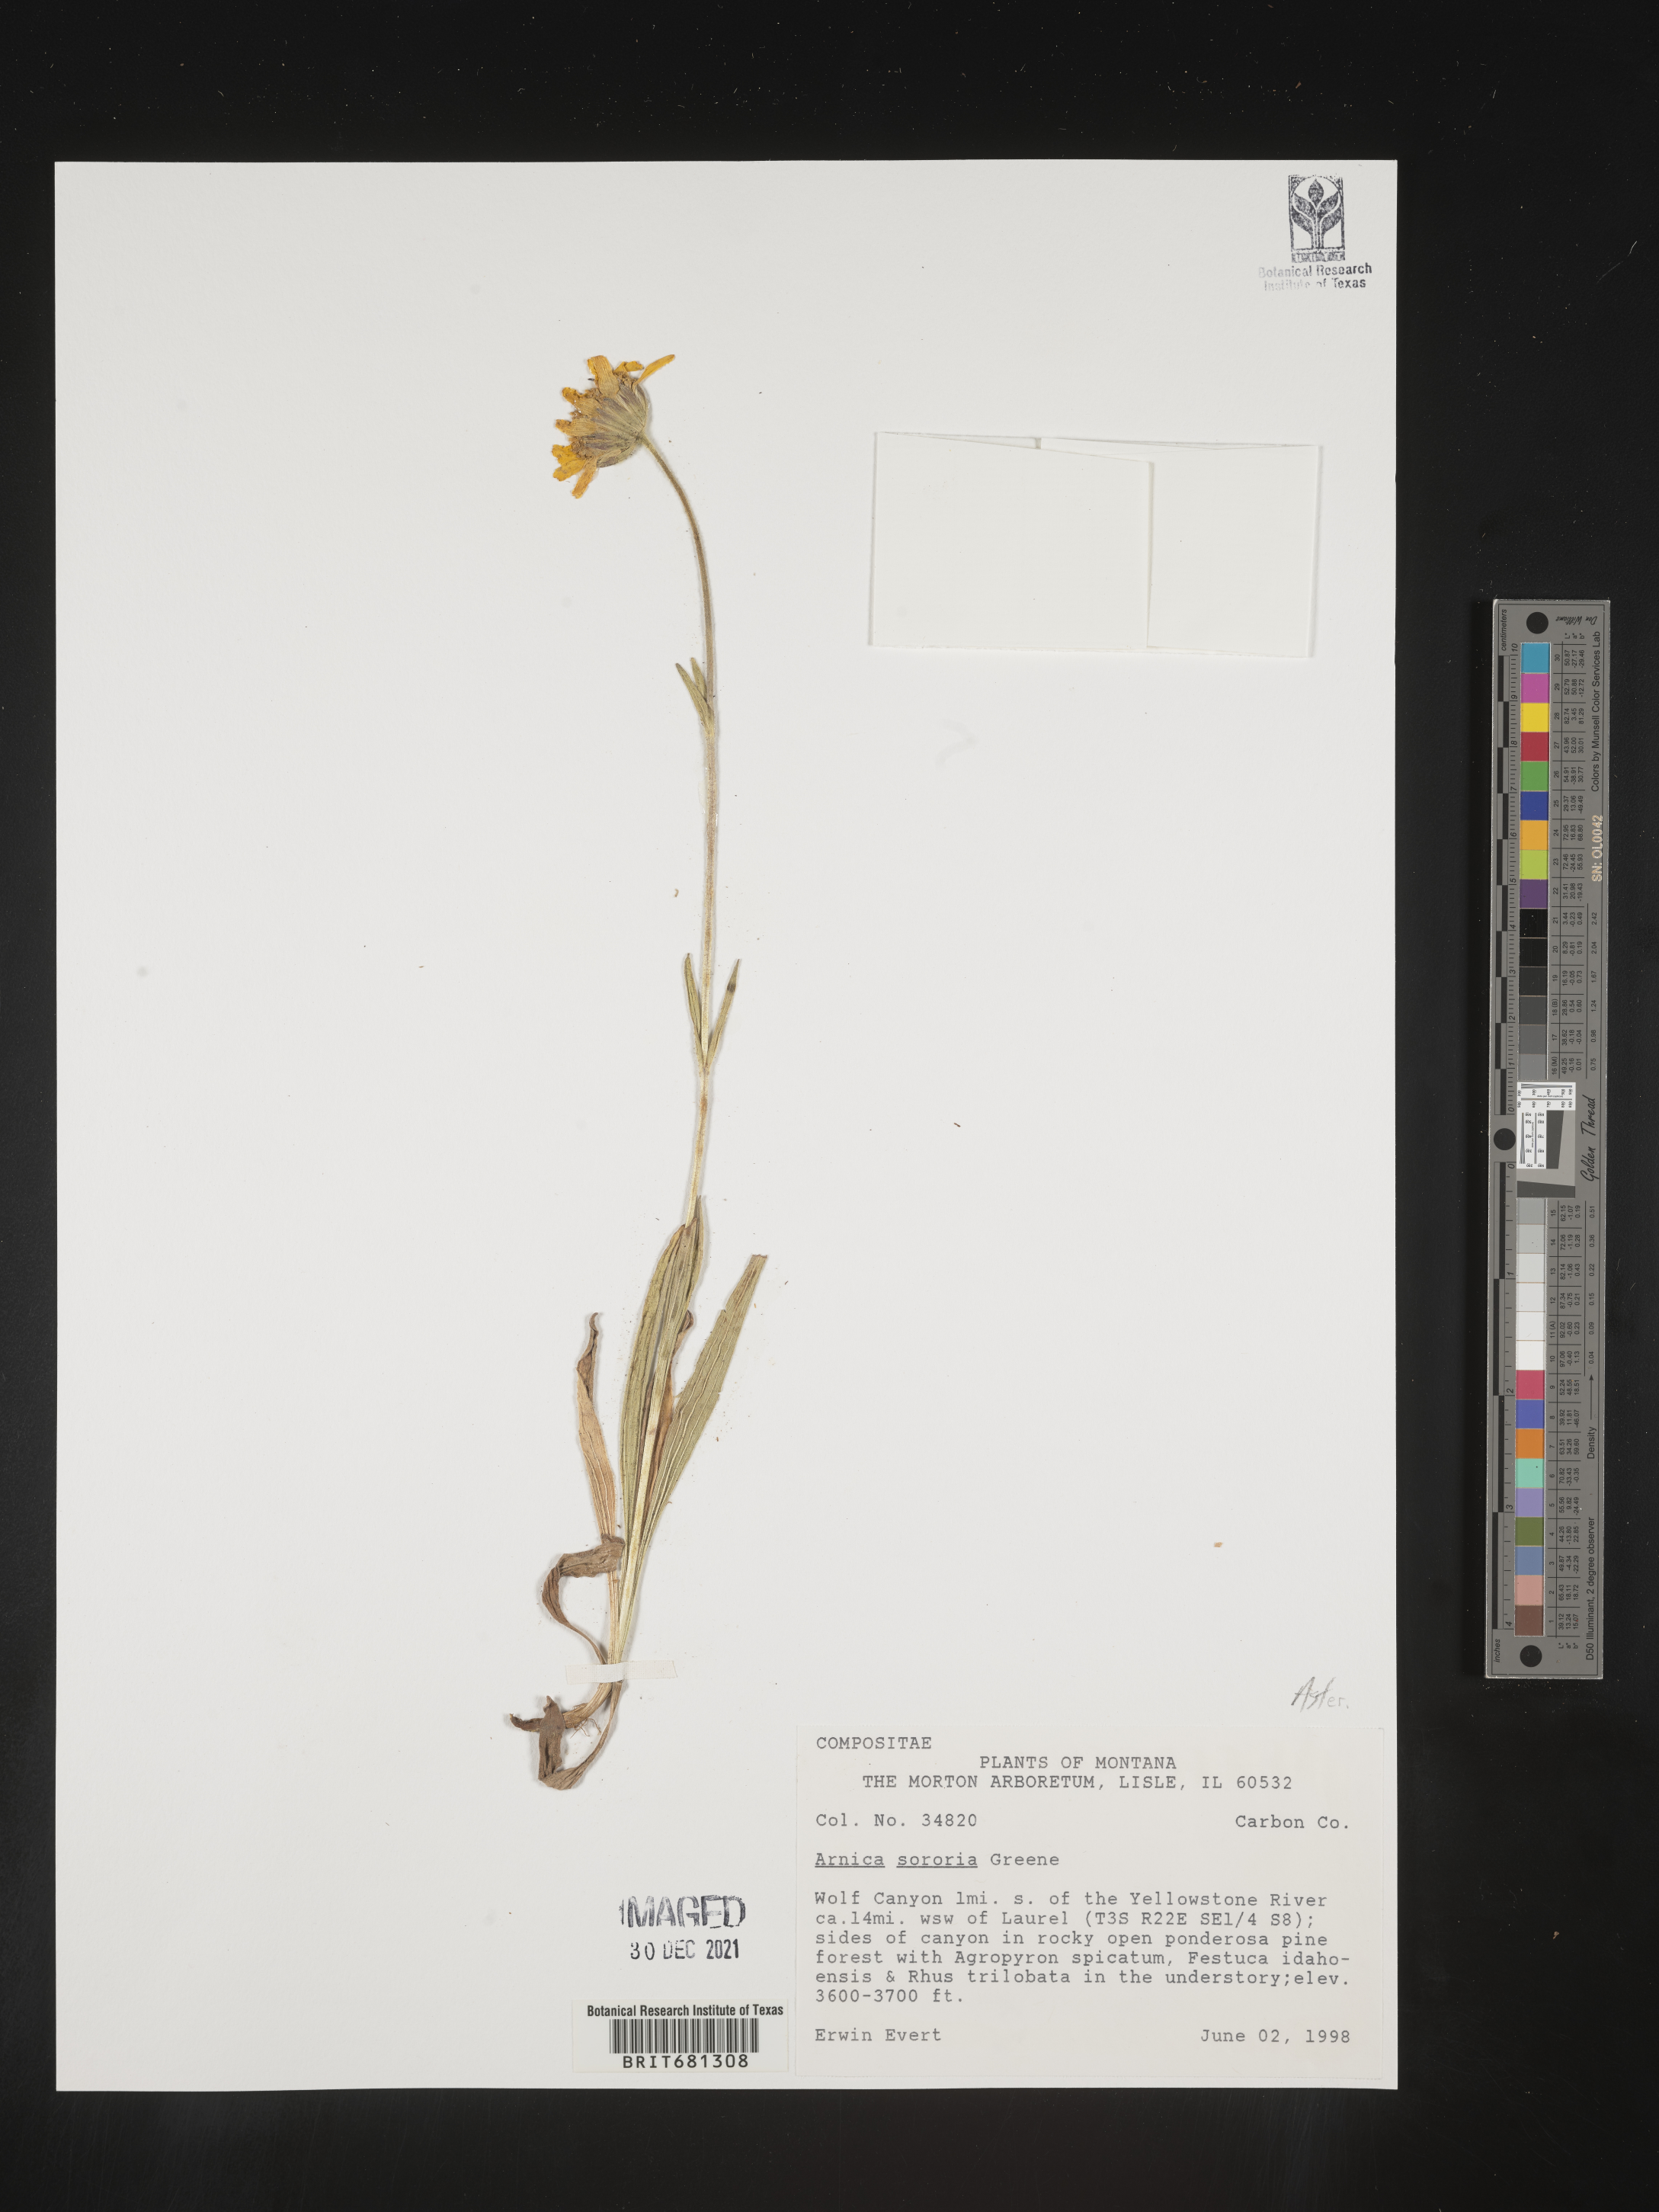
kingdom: Plantae
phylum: Tracheophyta
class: Magnoliopsida
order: Asterales
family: Asteraceae
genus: Arnica
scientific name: Arnica sororia
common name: Twin arnica
